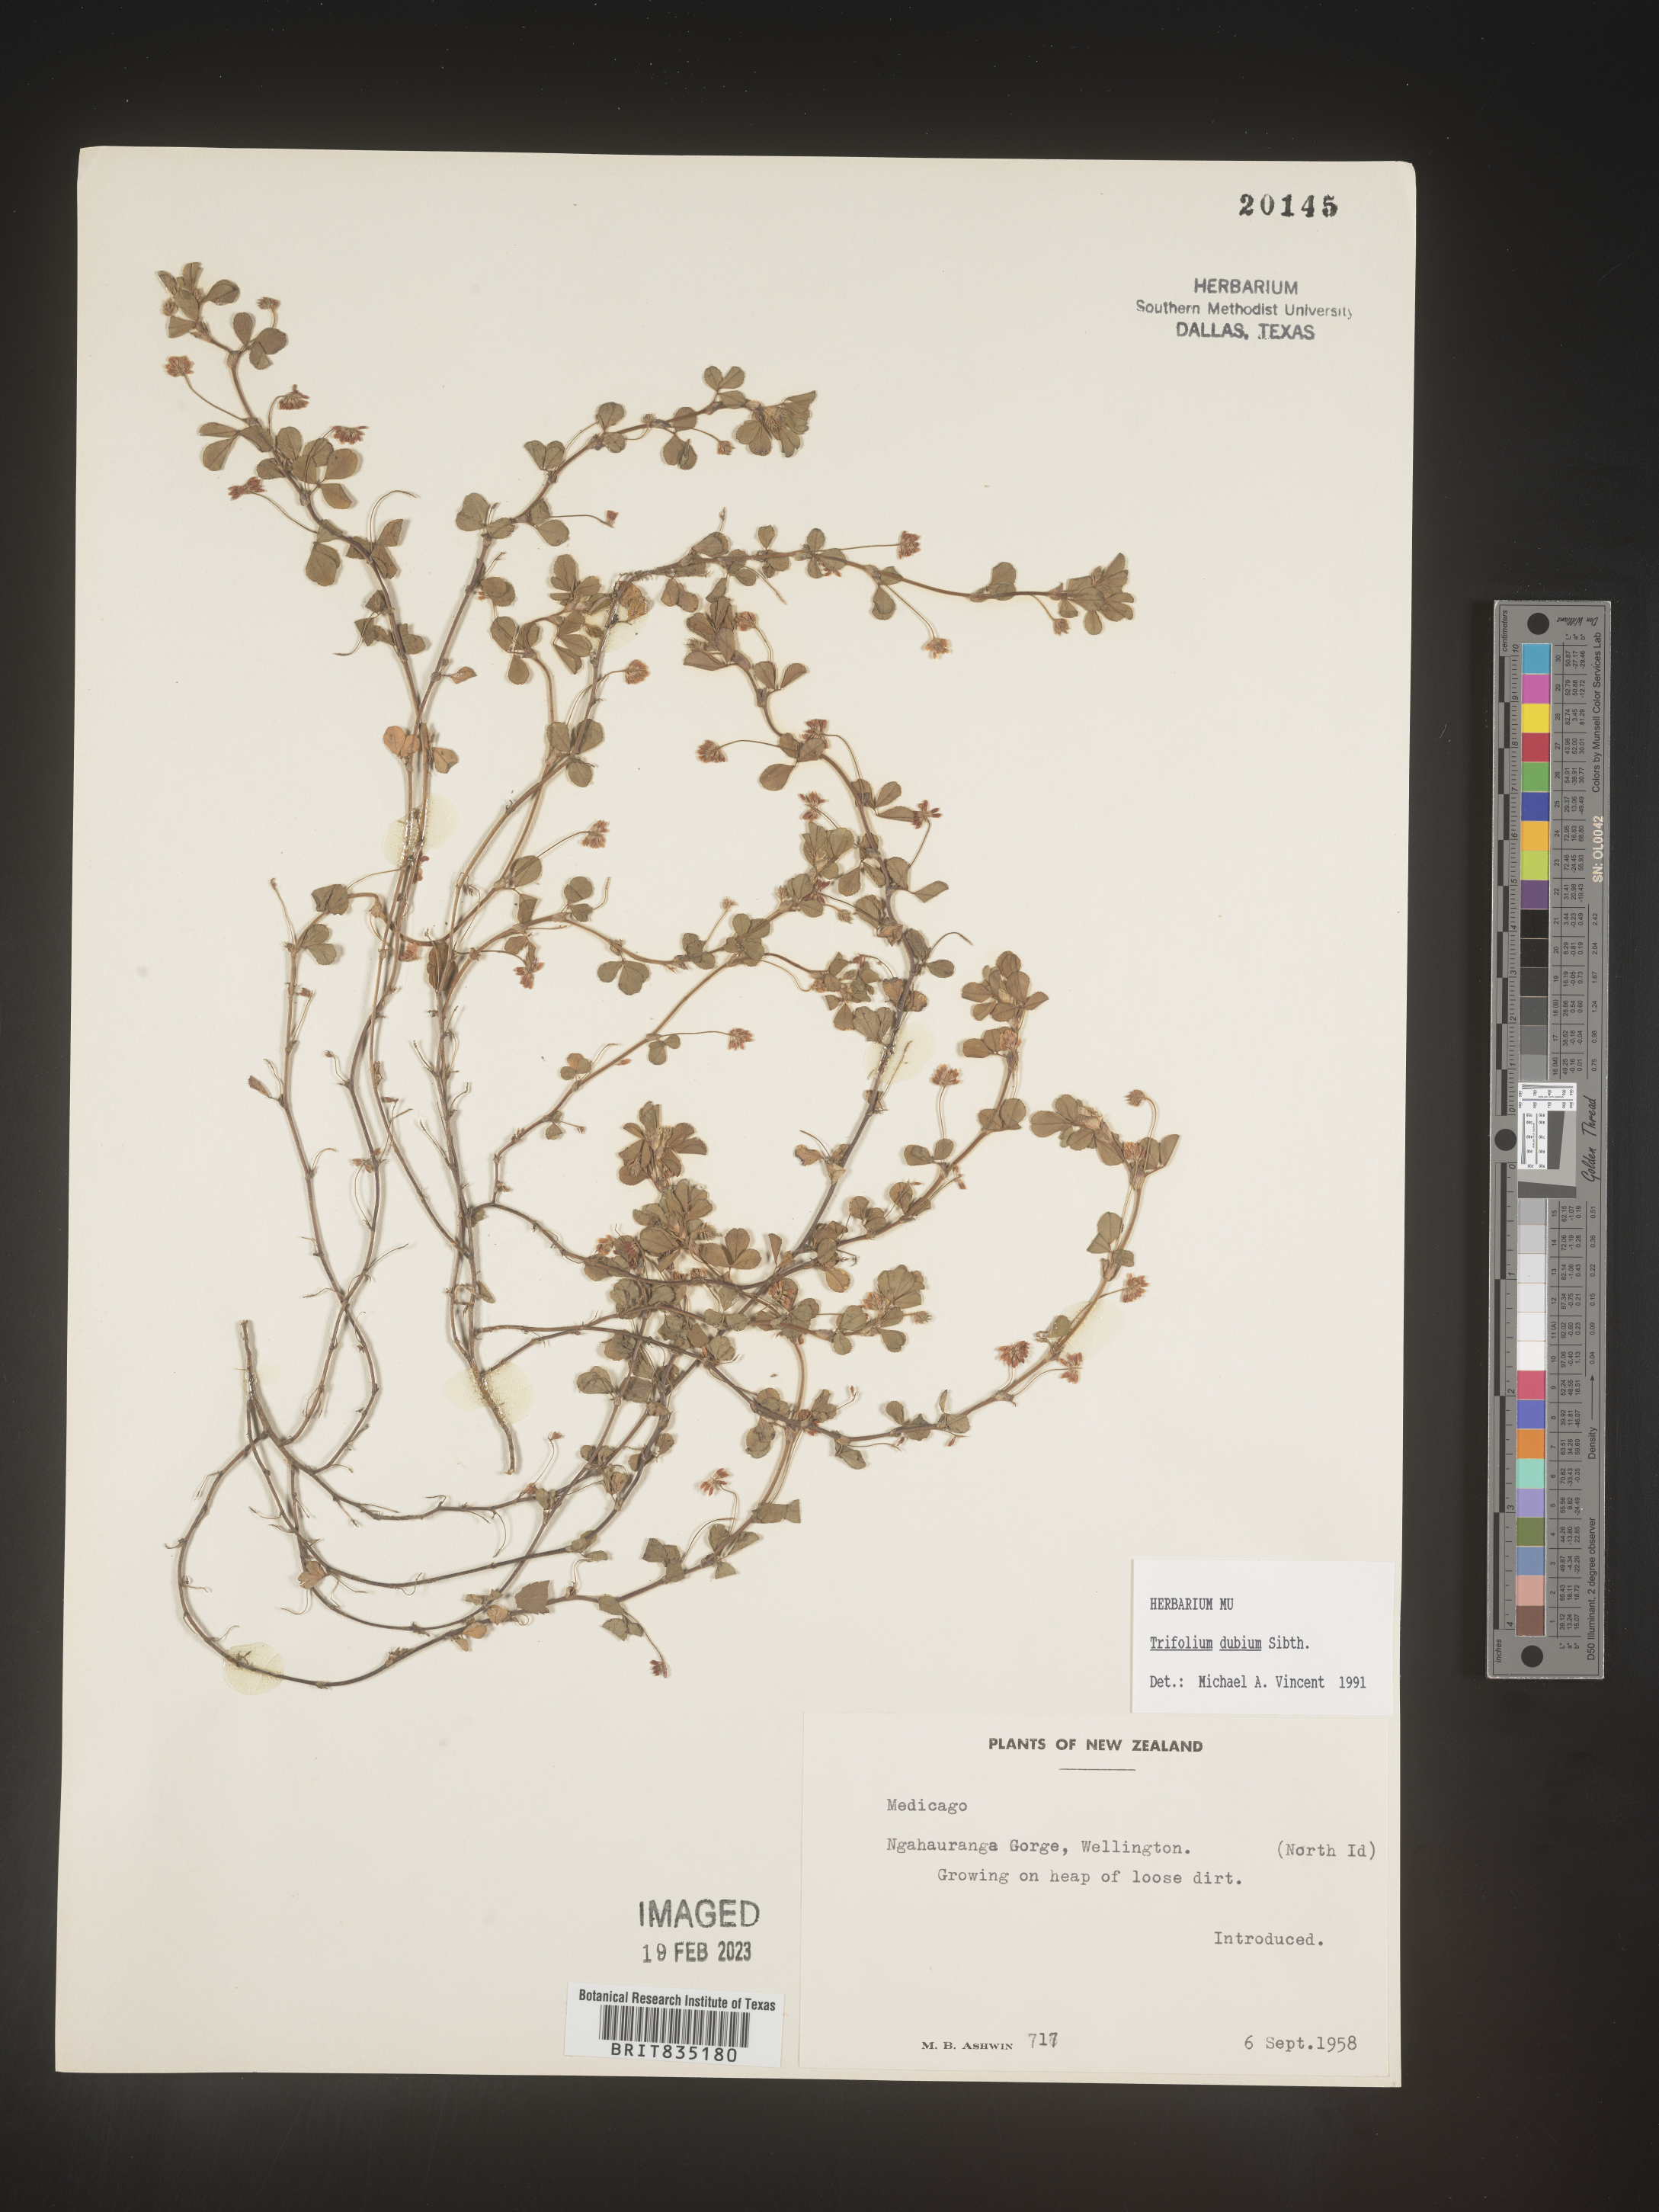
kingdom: Plantae
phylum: Tracheophyta
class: Magnoliopsida
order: Fabales
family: Fabaceae
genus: Trifolium
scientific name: Trifolium
